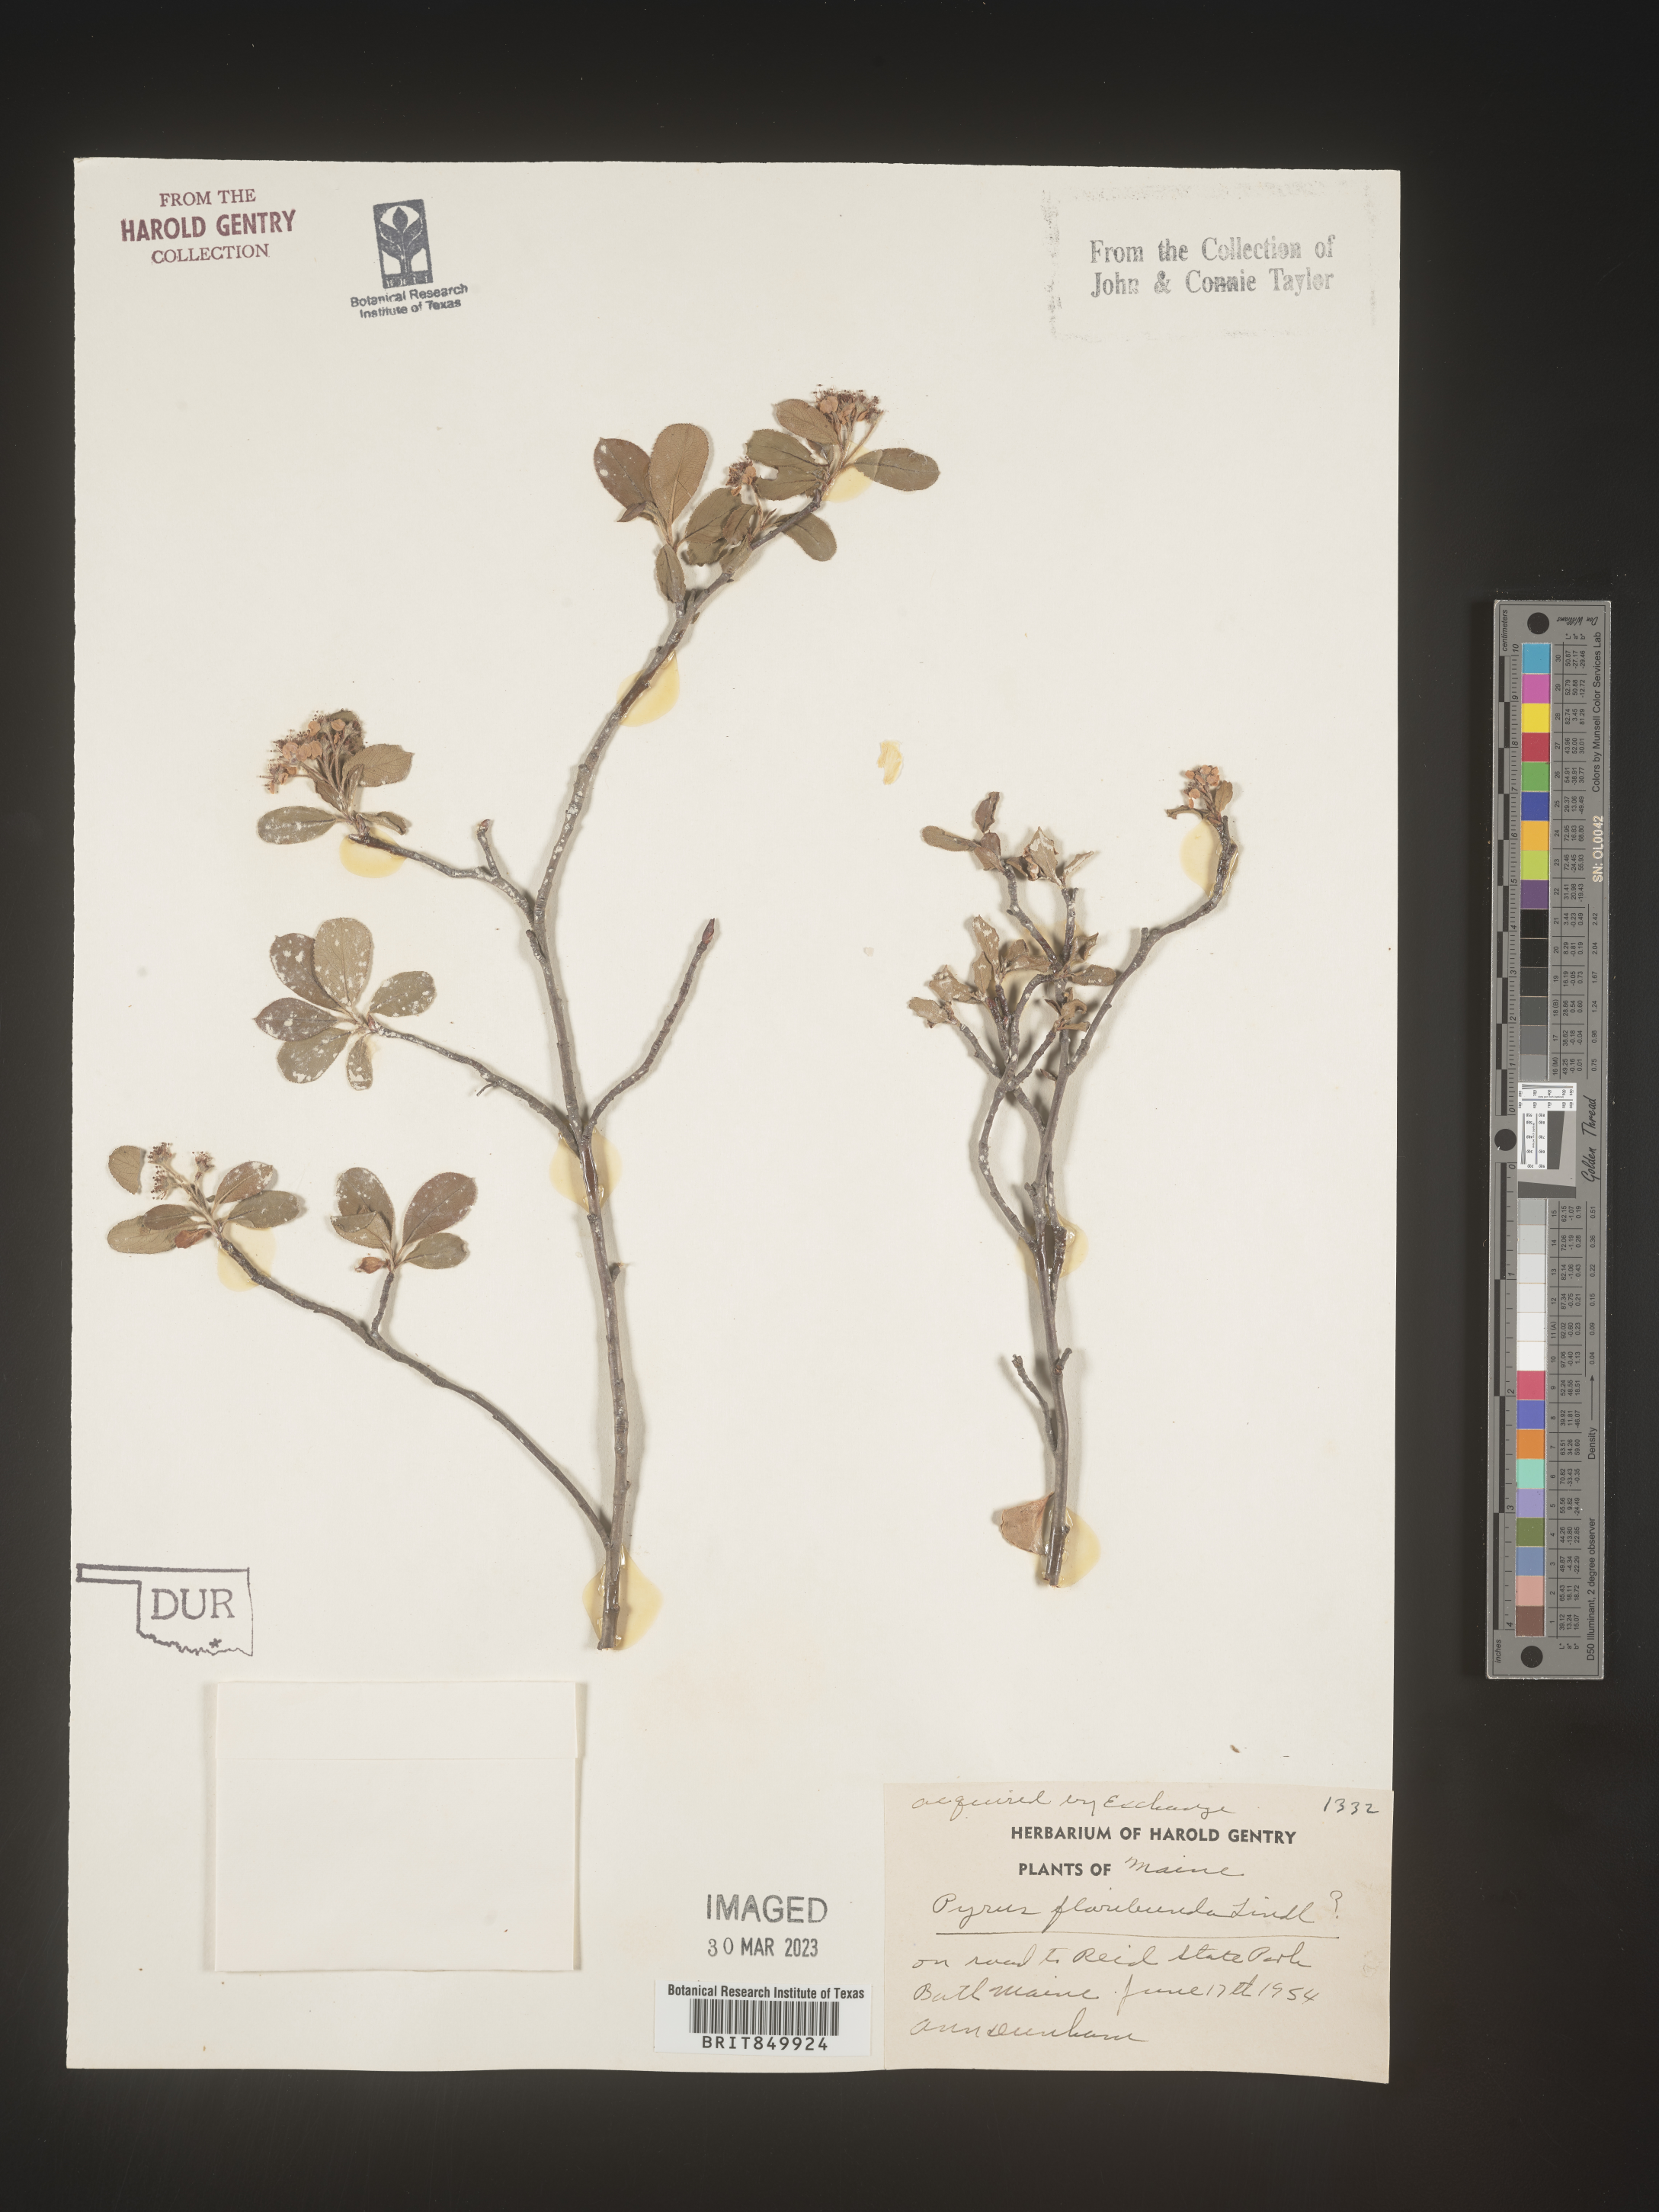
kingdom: Plantae
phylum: Tracheophyta
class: Magnoliopsida
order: Rosales
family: Rosaceae
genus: Pyrus
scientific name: Pyrus
